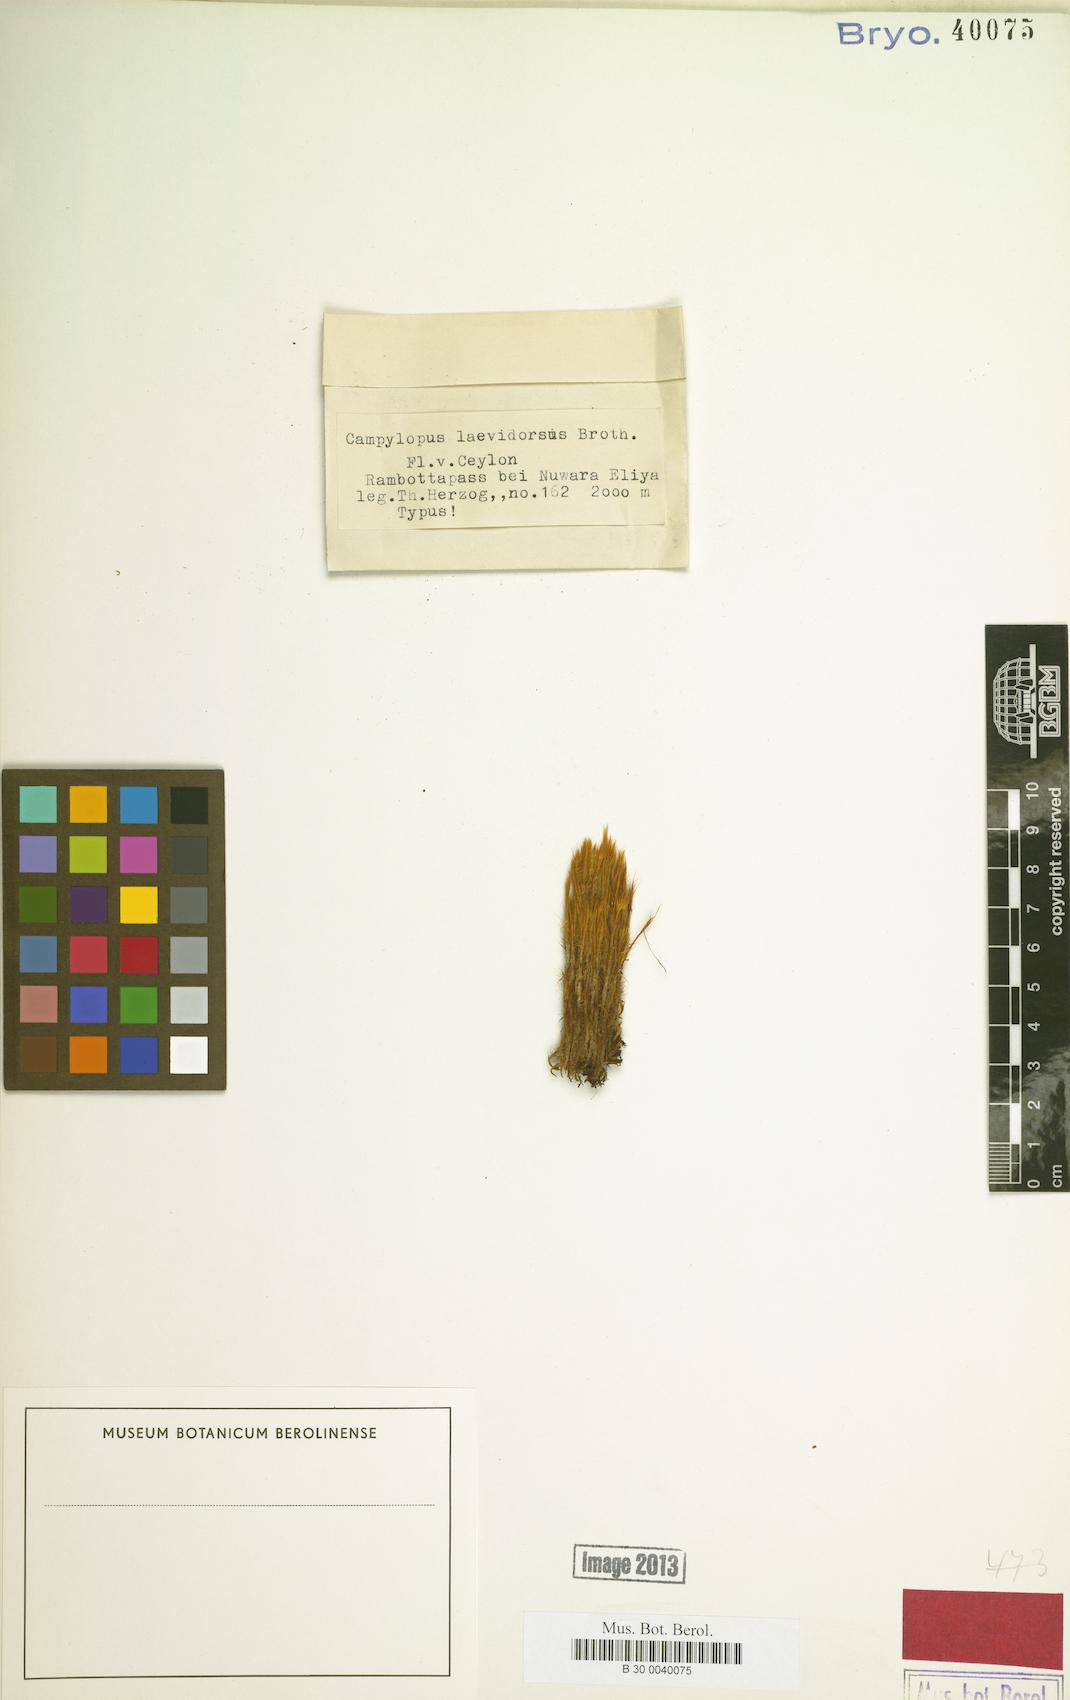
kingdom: Plantae
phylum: Bryophyta
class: Bryopsida
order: Dicranales
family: Dicranaceae
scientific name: Dicranaceae
